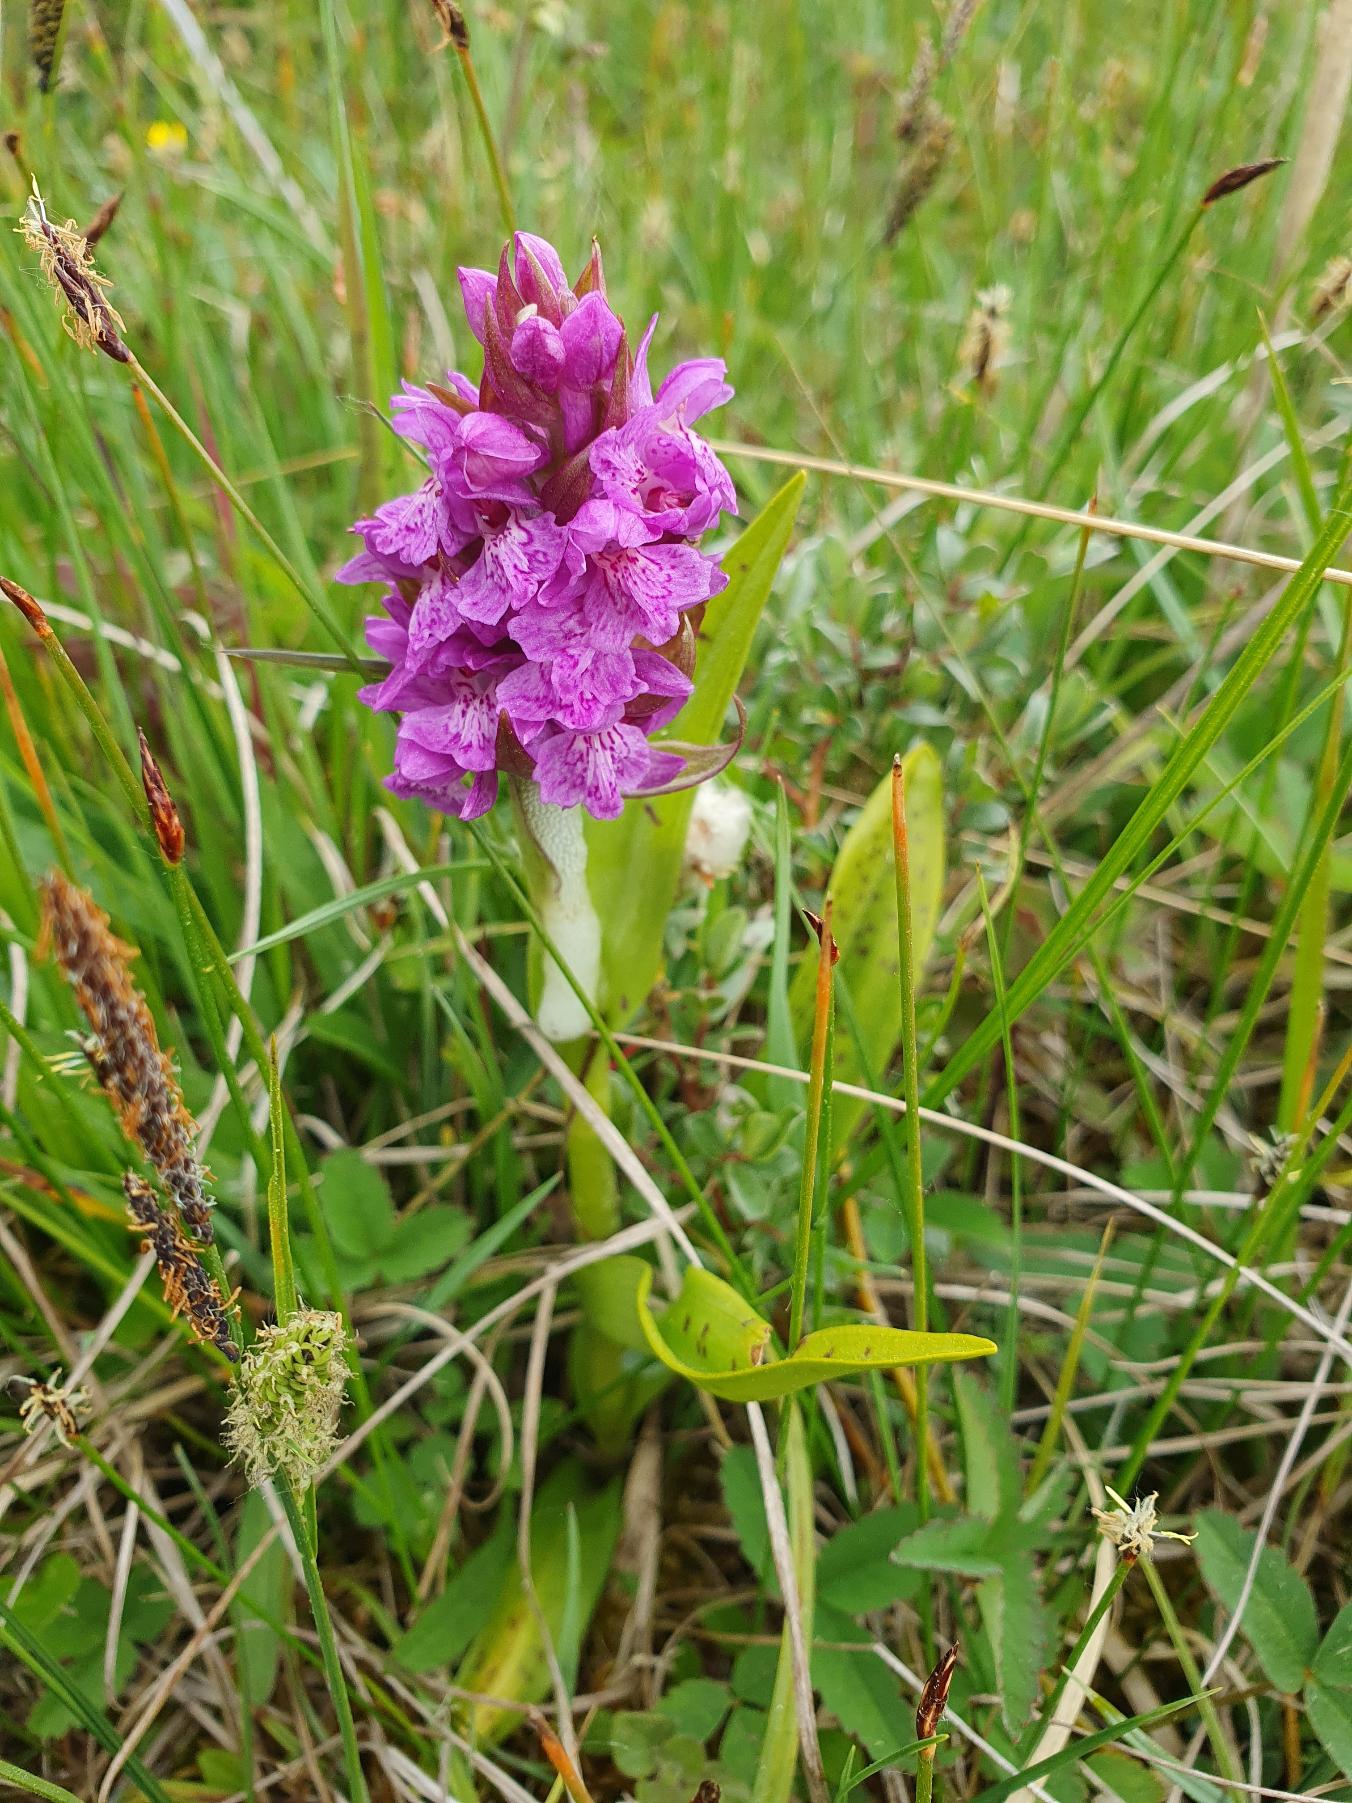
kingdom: Plantae
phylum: Tracheophyta
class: Liliopsida
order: Asparagales
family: Orchidaceae
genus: Dactylorhiza
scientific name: Dactylorhiza majalis
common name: Maj-gøgeurt
